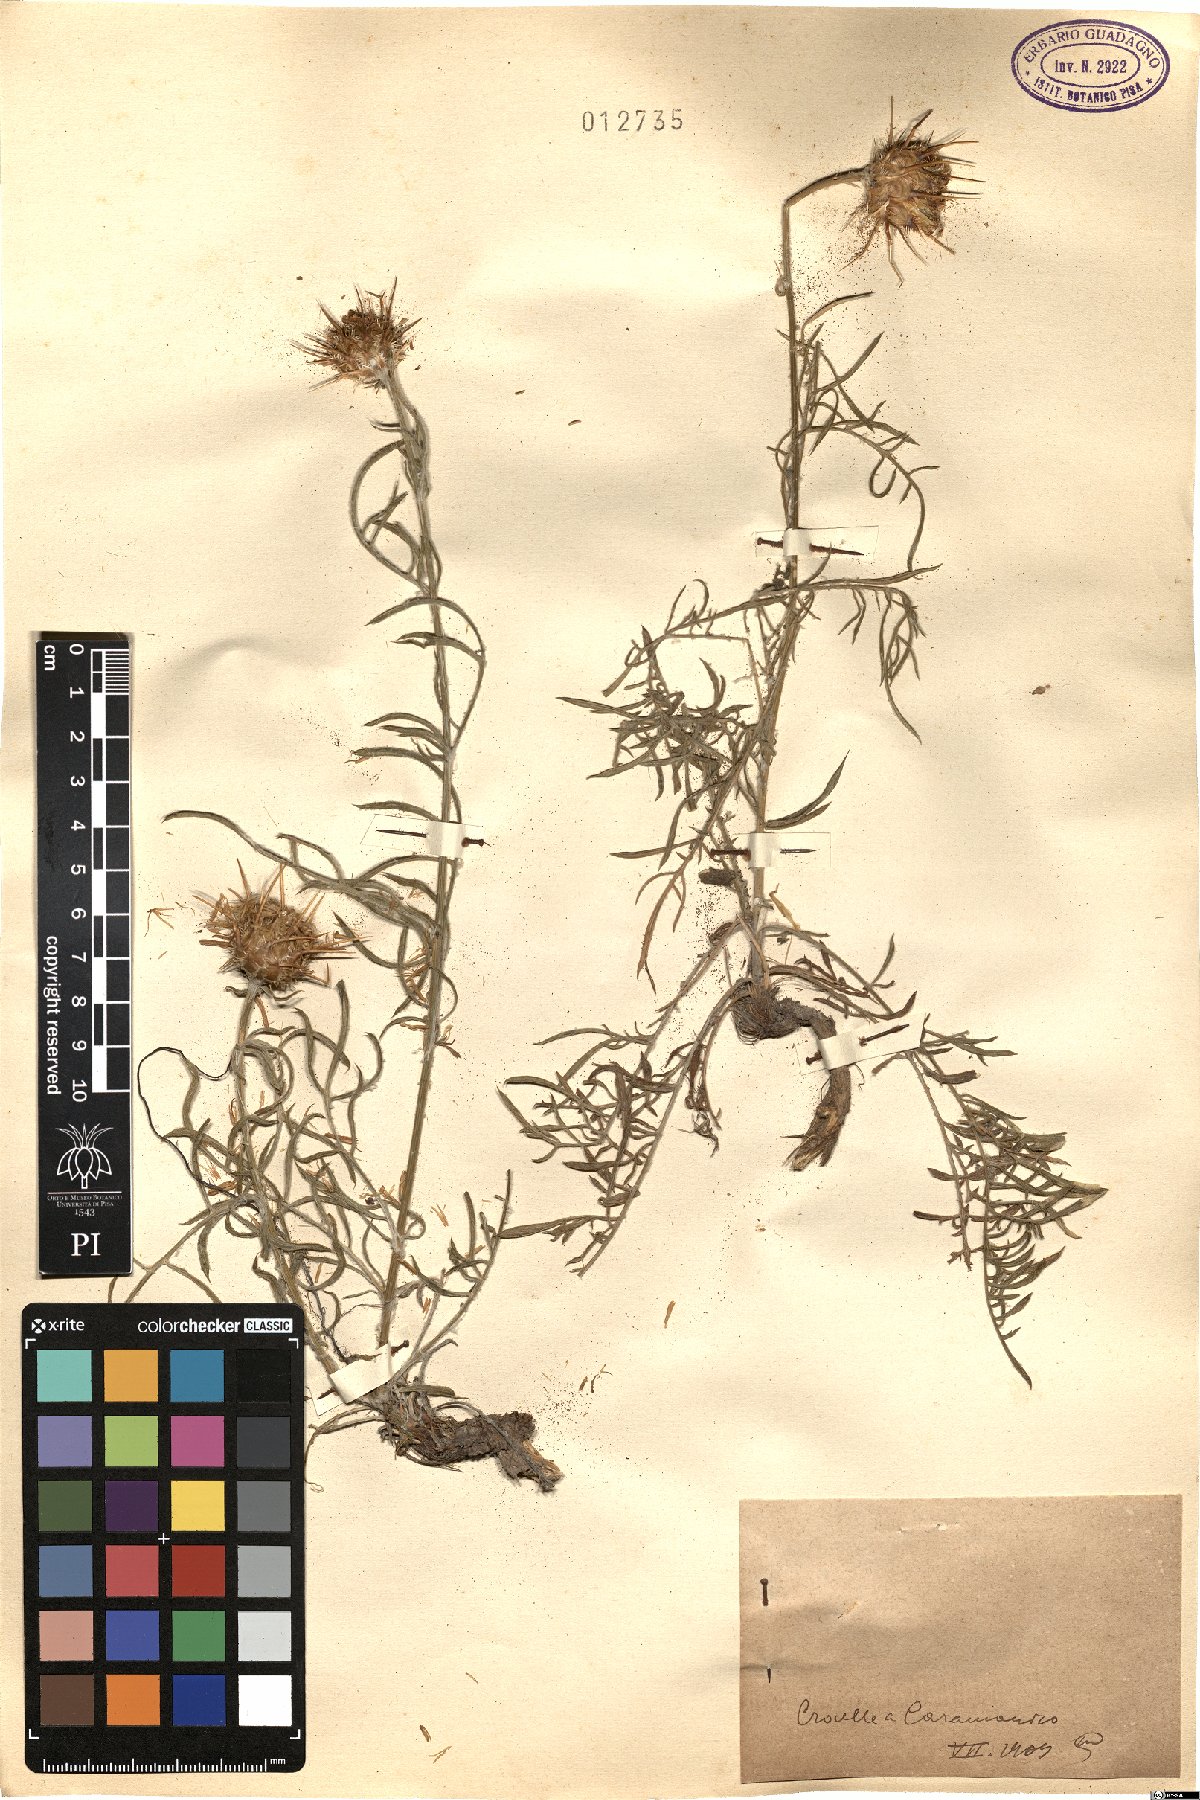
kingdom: Plantae
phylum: Tracheophyta
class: Magnoliopsida
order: Asterales
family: Asteraceae
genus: Centaurea
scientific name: Centaurea
